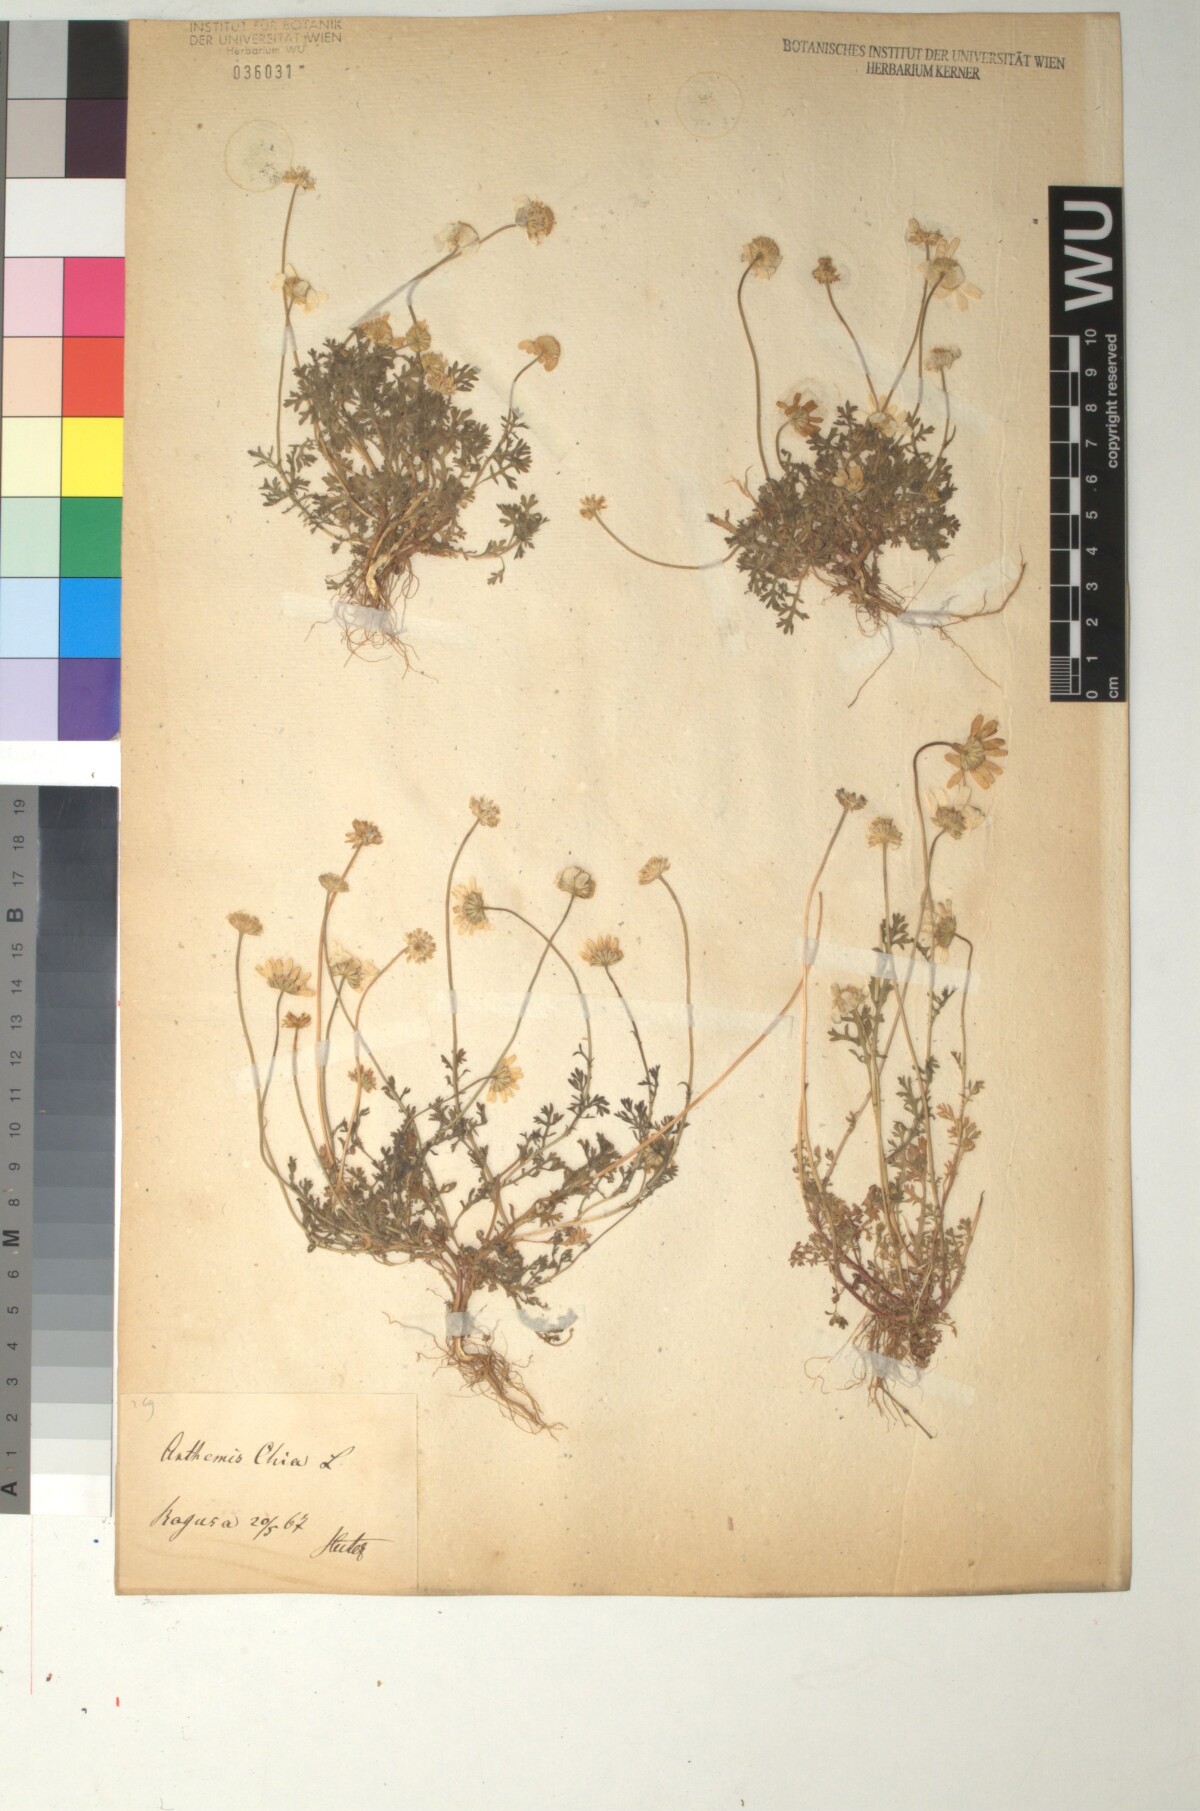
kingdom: Plantae
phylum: Tracheophyta
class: Magnoliopsida
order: Asterales
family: Asteraceae
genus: Anthemis
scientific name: Anthemis chia
